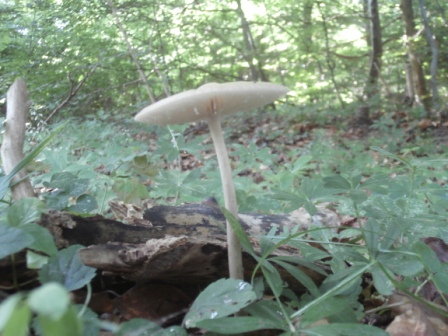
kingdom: Fungi
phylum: Basidiomycota
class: Agaricomycetes
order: Agaricales
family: Physalacriaceae
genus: Hymenopellis
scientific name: Hymenopellis radicata
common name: almindelig pælerodshat
